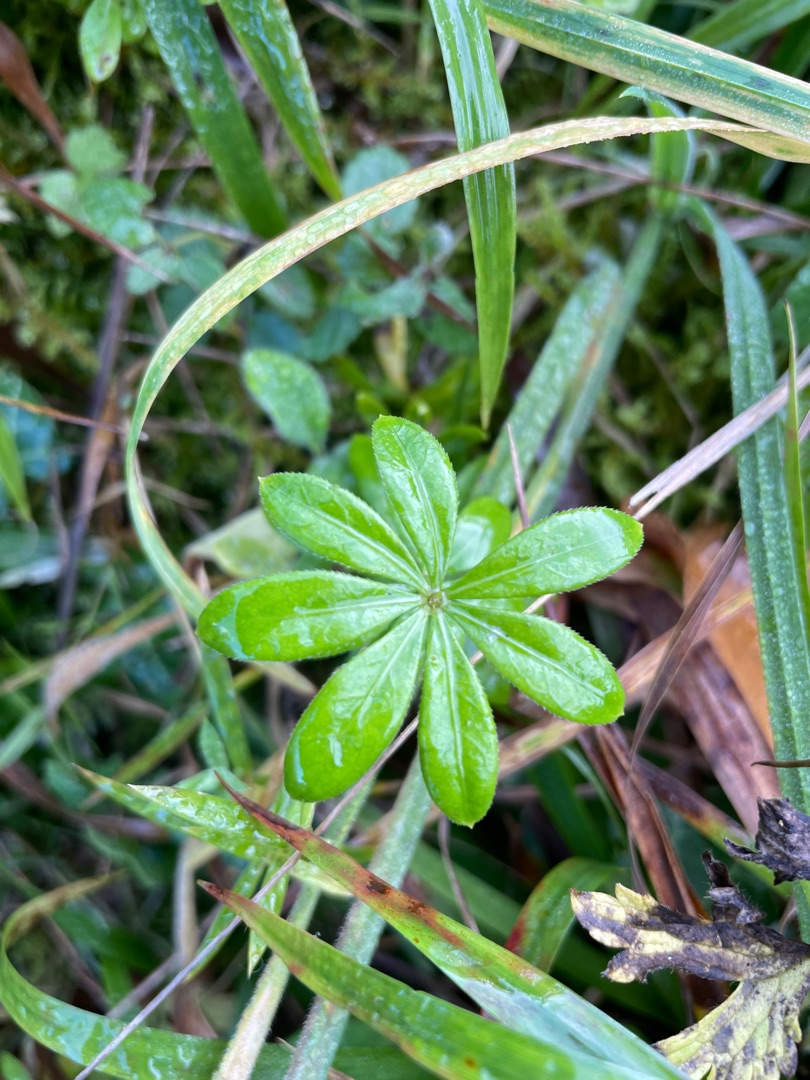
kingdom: Plantae
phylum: Tracheophyta
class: Magnoliopsida
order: Gentianales
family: Rubiaceae
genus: Galium
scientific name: Galium odoratum
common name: Skovmærke
